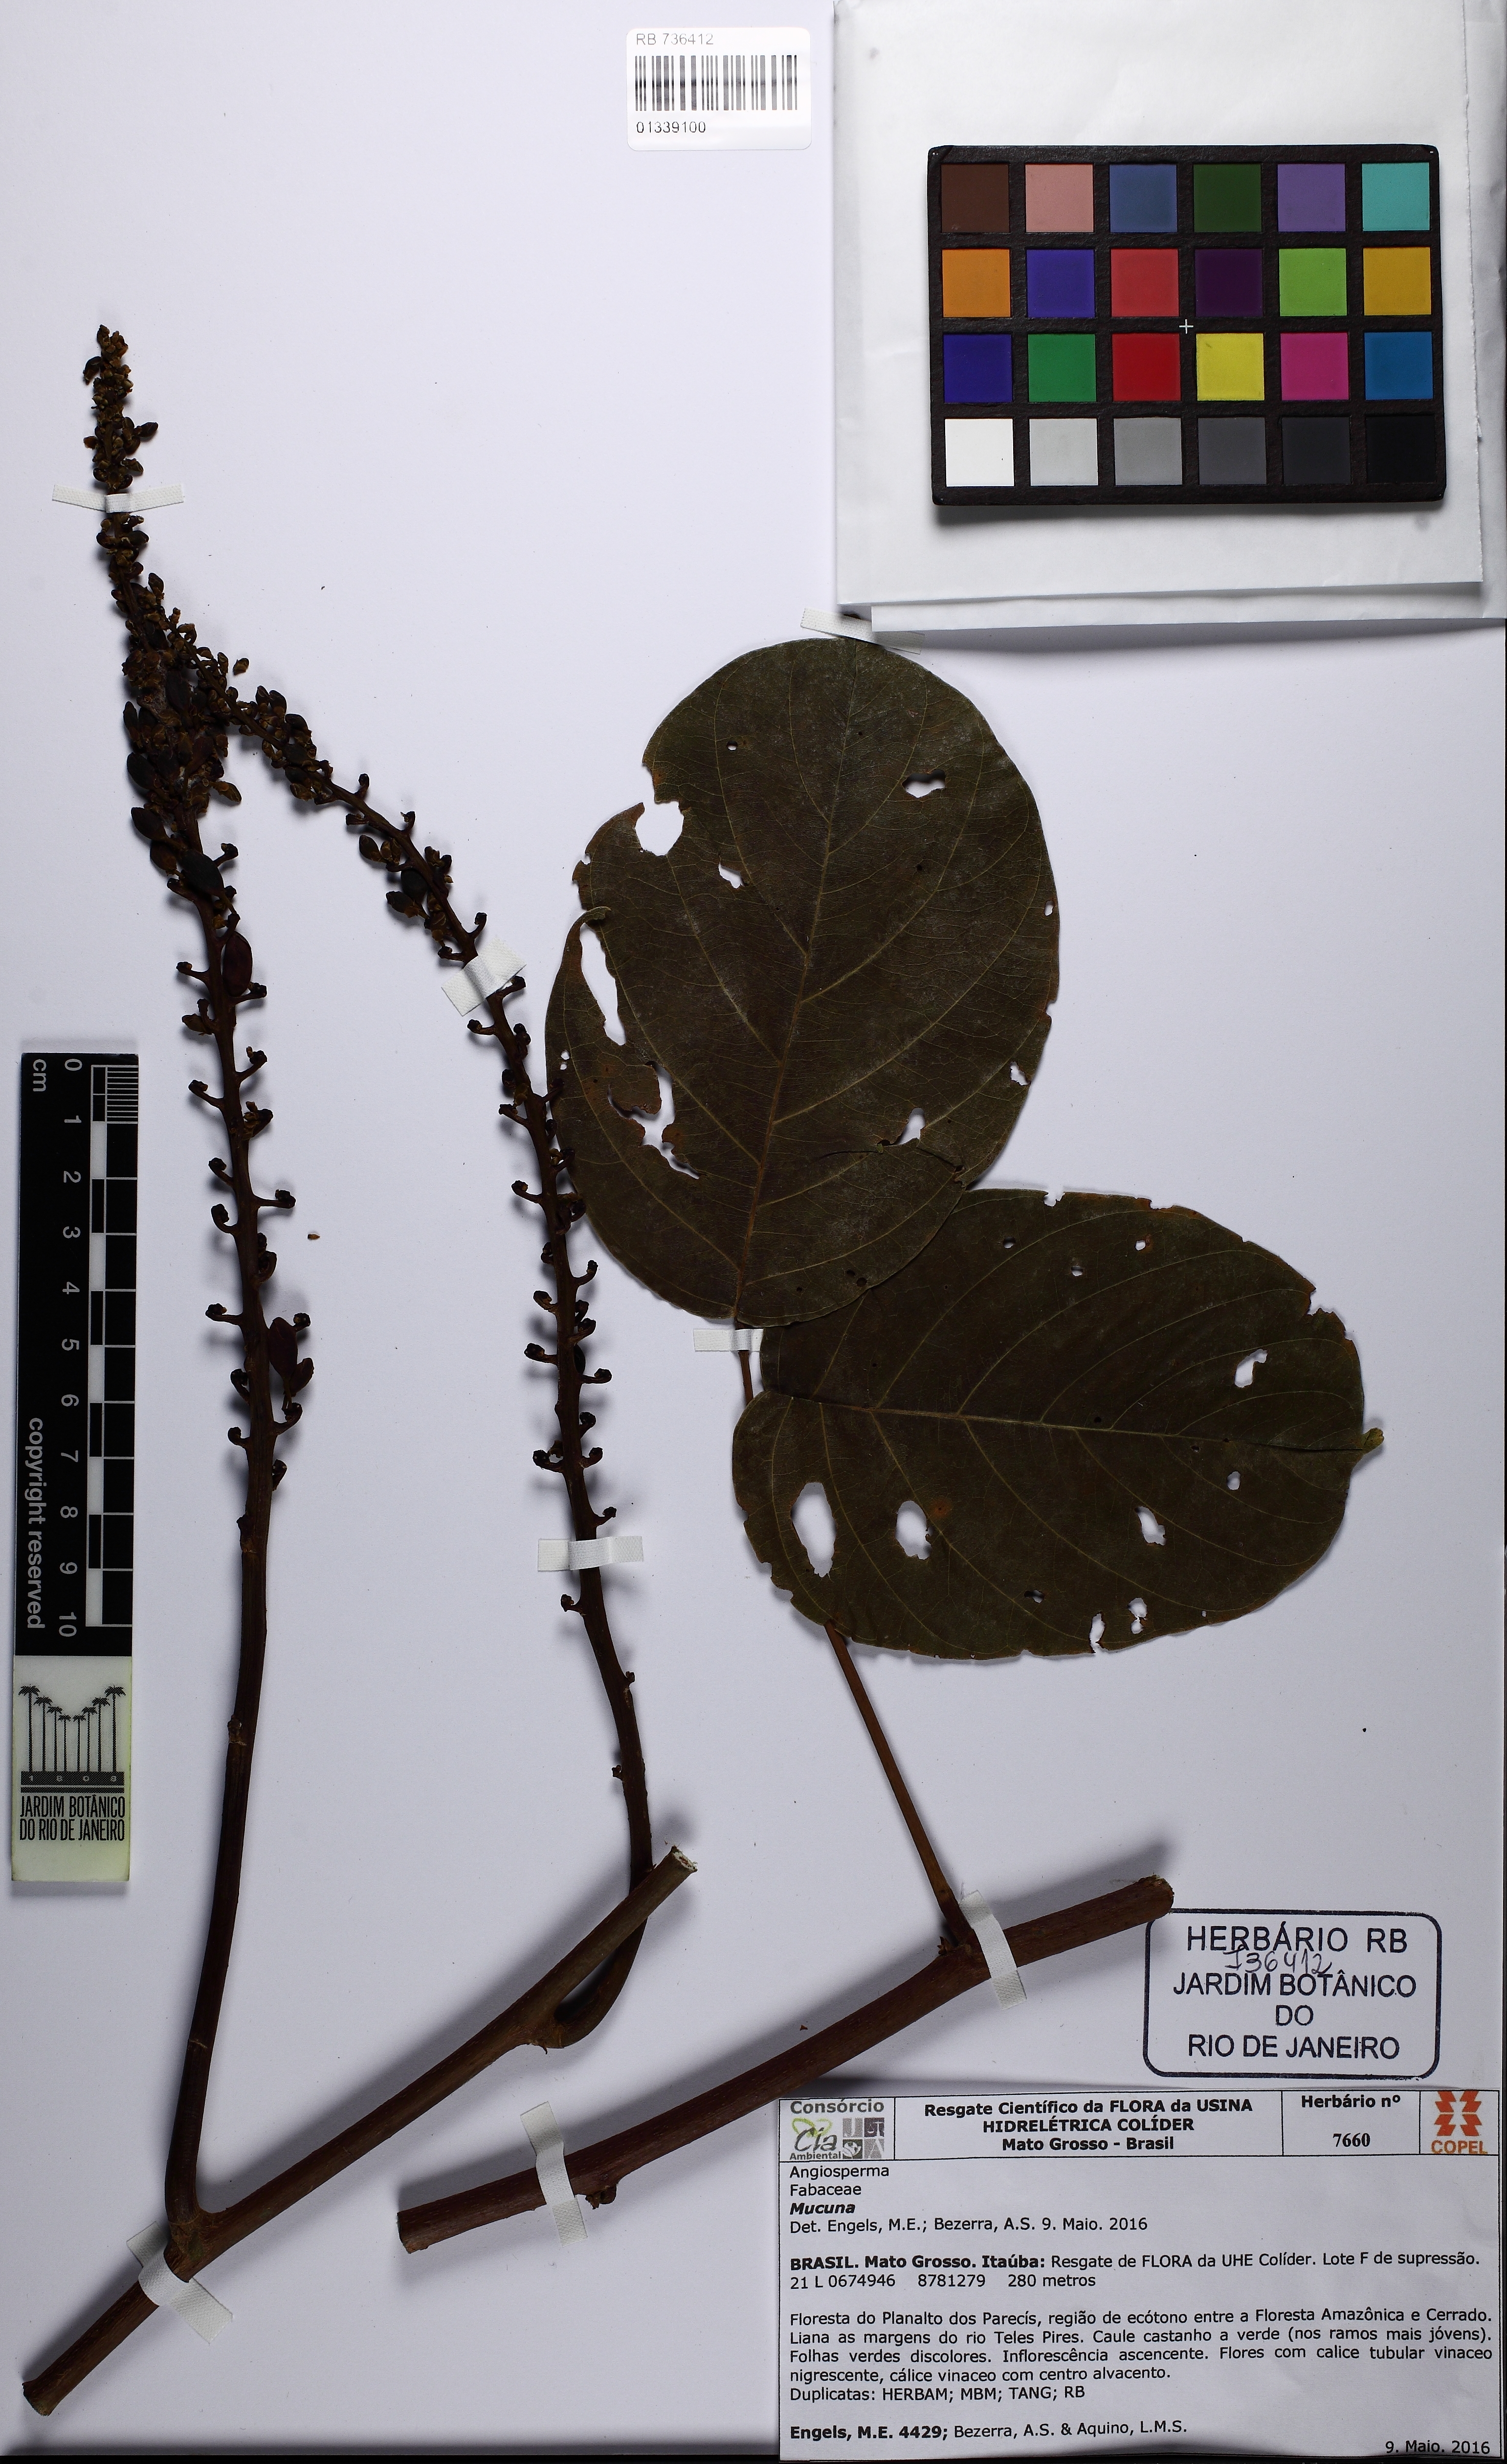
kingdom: Plantae
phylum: Tracheophyta
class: Magnoliopsida
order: Fabales
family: Fabaceae
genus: Mucuna
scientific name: Mucuna
